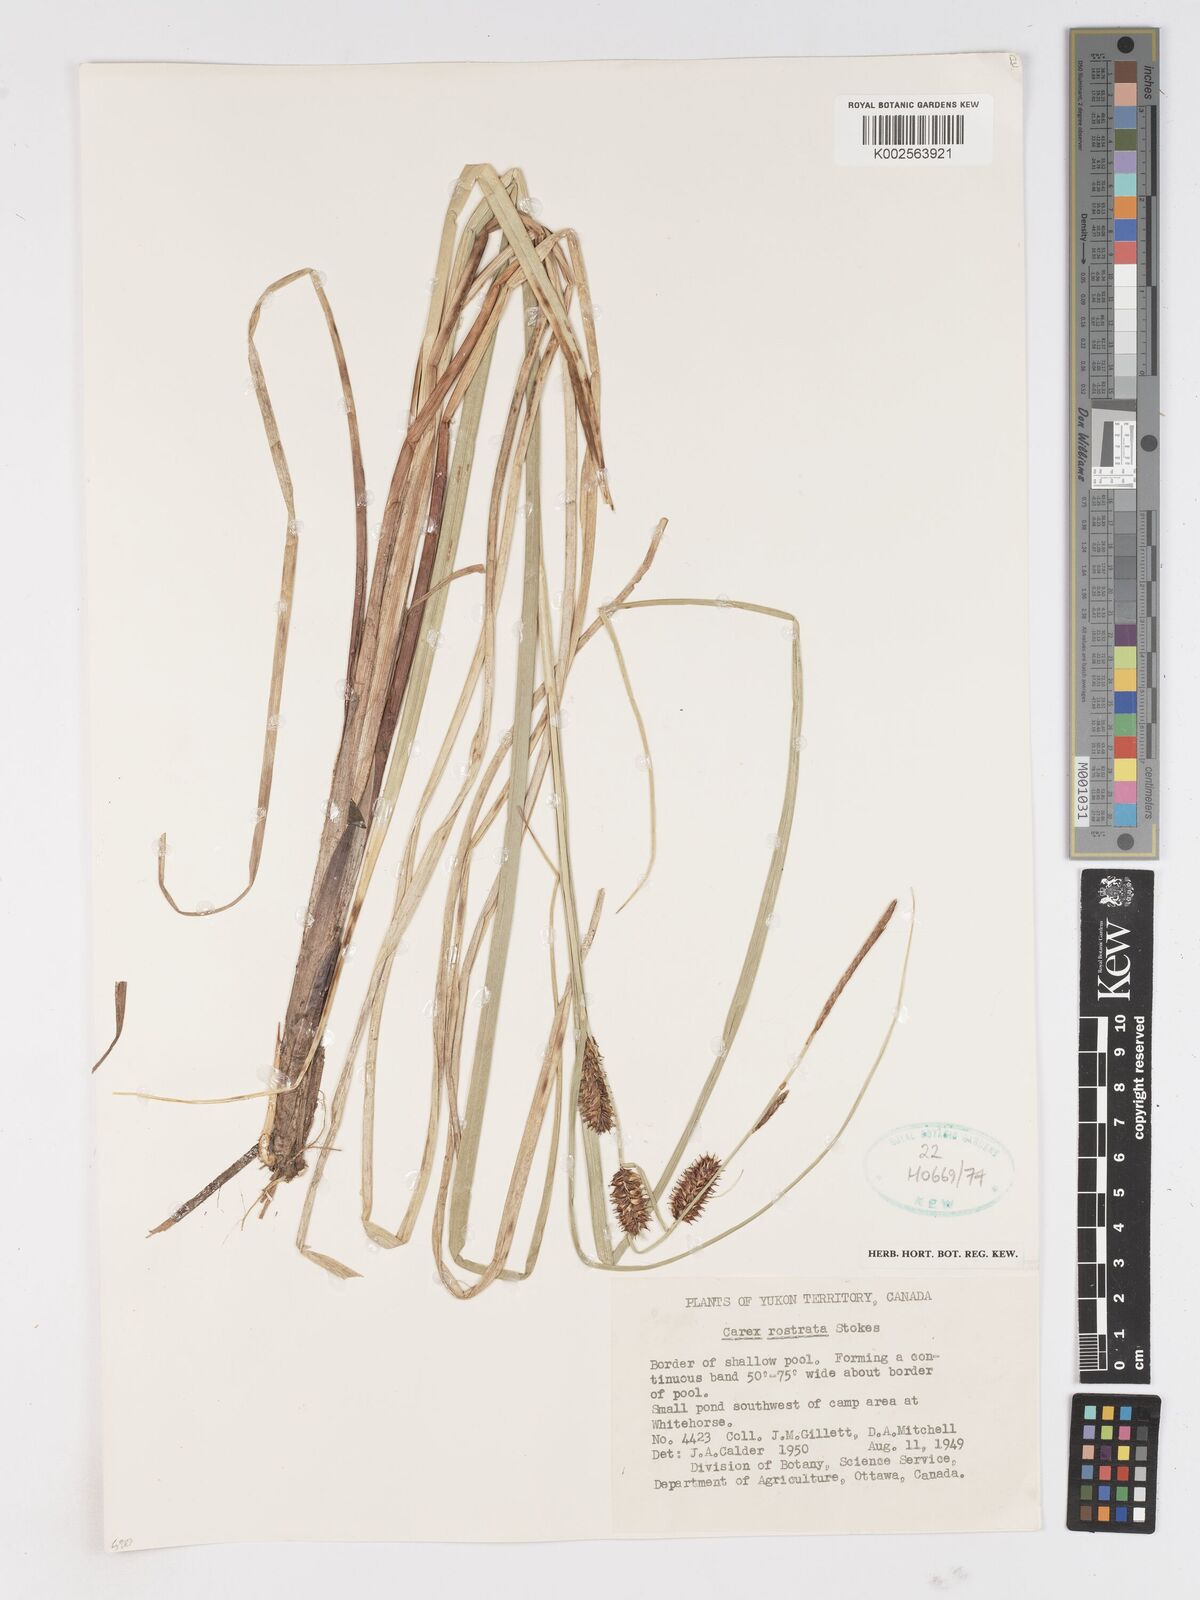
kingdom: Plantae
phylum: Tracheophyta
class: Liliopsida
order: Poales
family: Cyperaceae
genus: Carex
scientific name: Carex rostrata
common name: Bottle sedge
